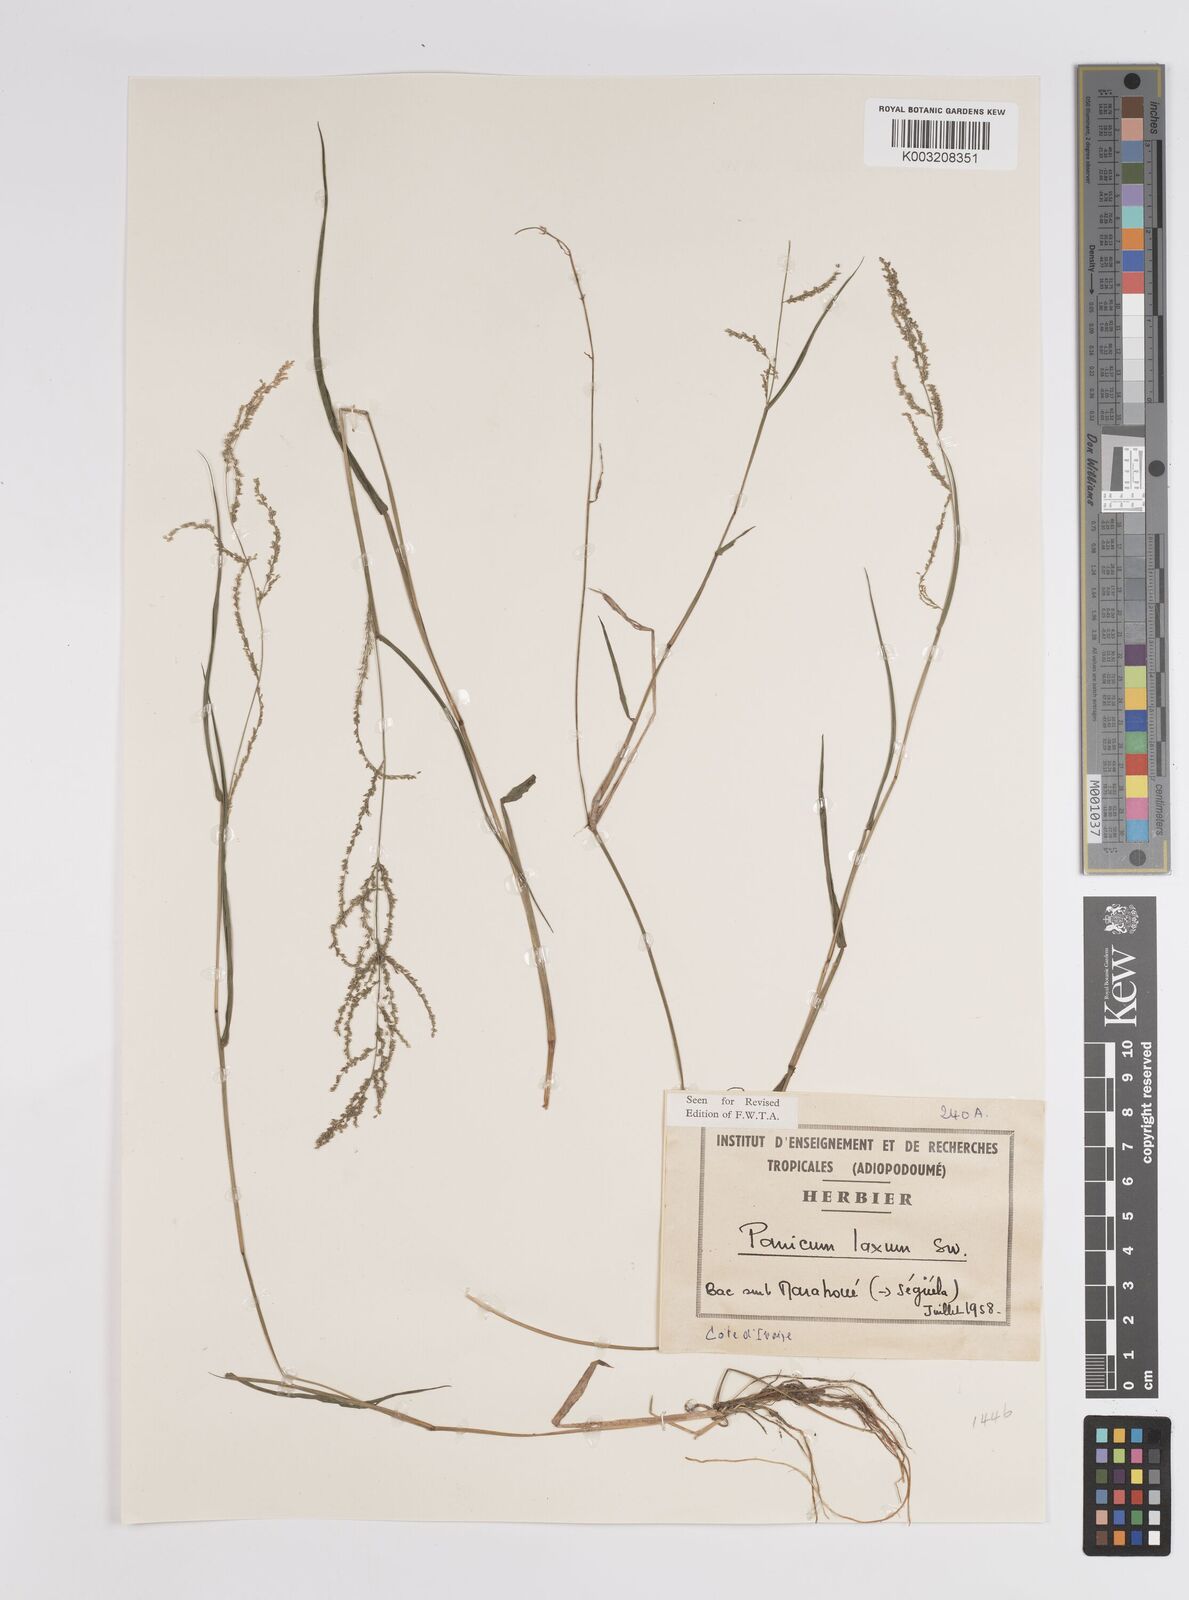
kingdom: Plantae
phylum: Tracheophyta
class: Liliopsida
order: Poales
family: Poaceae
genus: Steinchisma
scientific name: Steinchisma laxum
